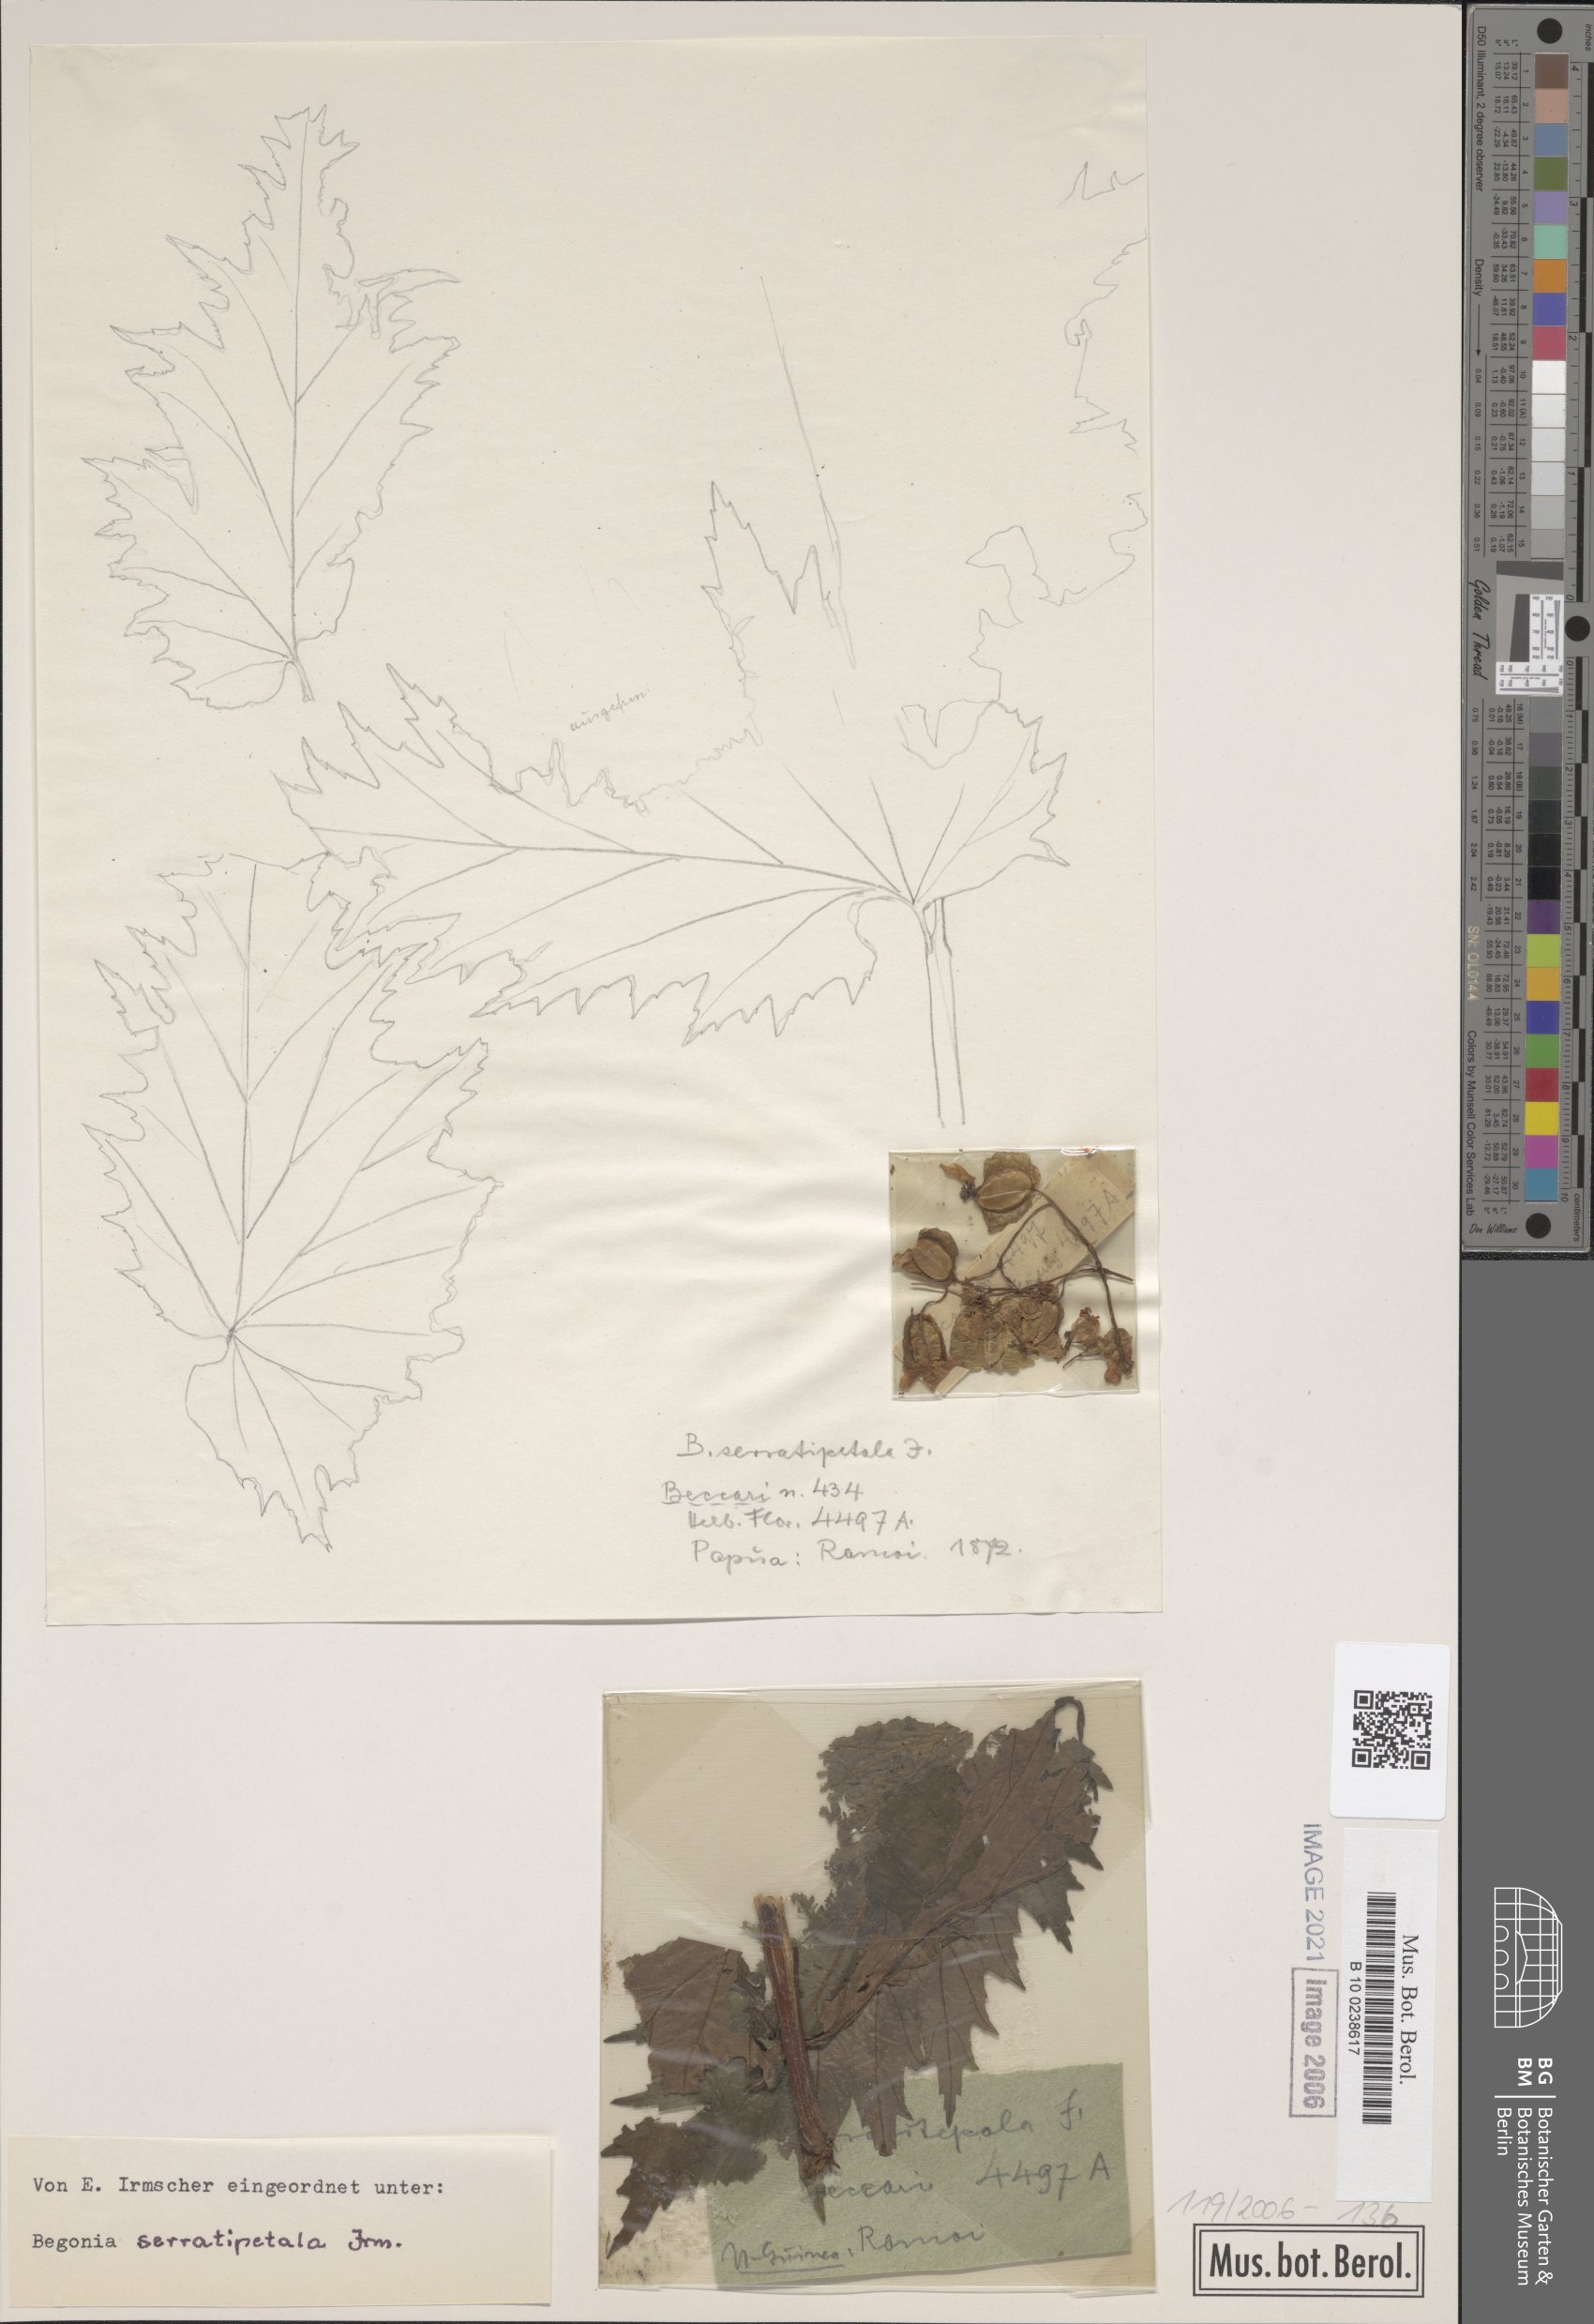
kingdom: Plantae
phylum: Tracheophyta
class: Magnoliopsida
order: Cucurbitales
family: Begoniaceae
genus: Begonia
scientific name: Begonia serratipetala
